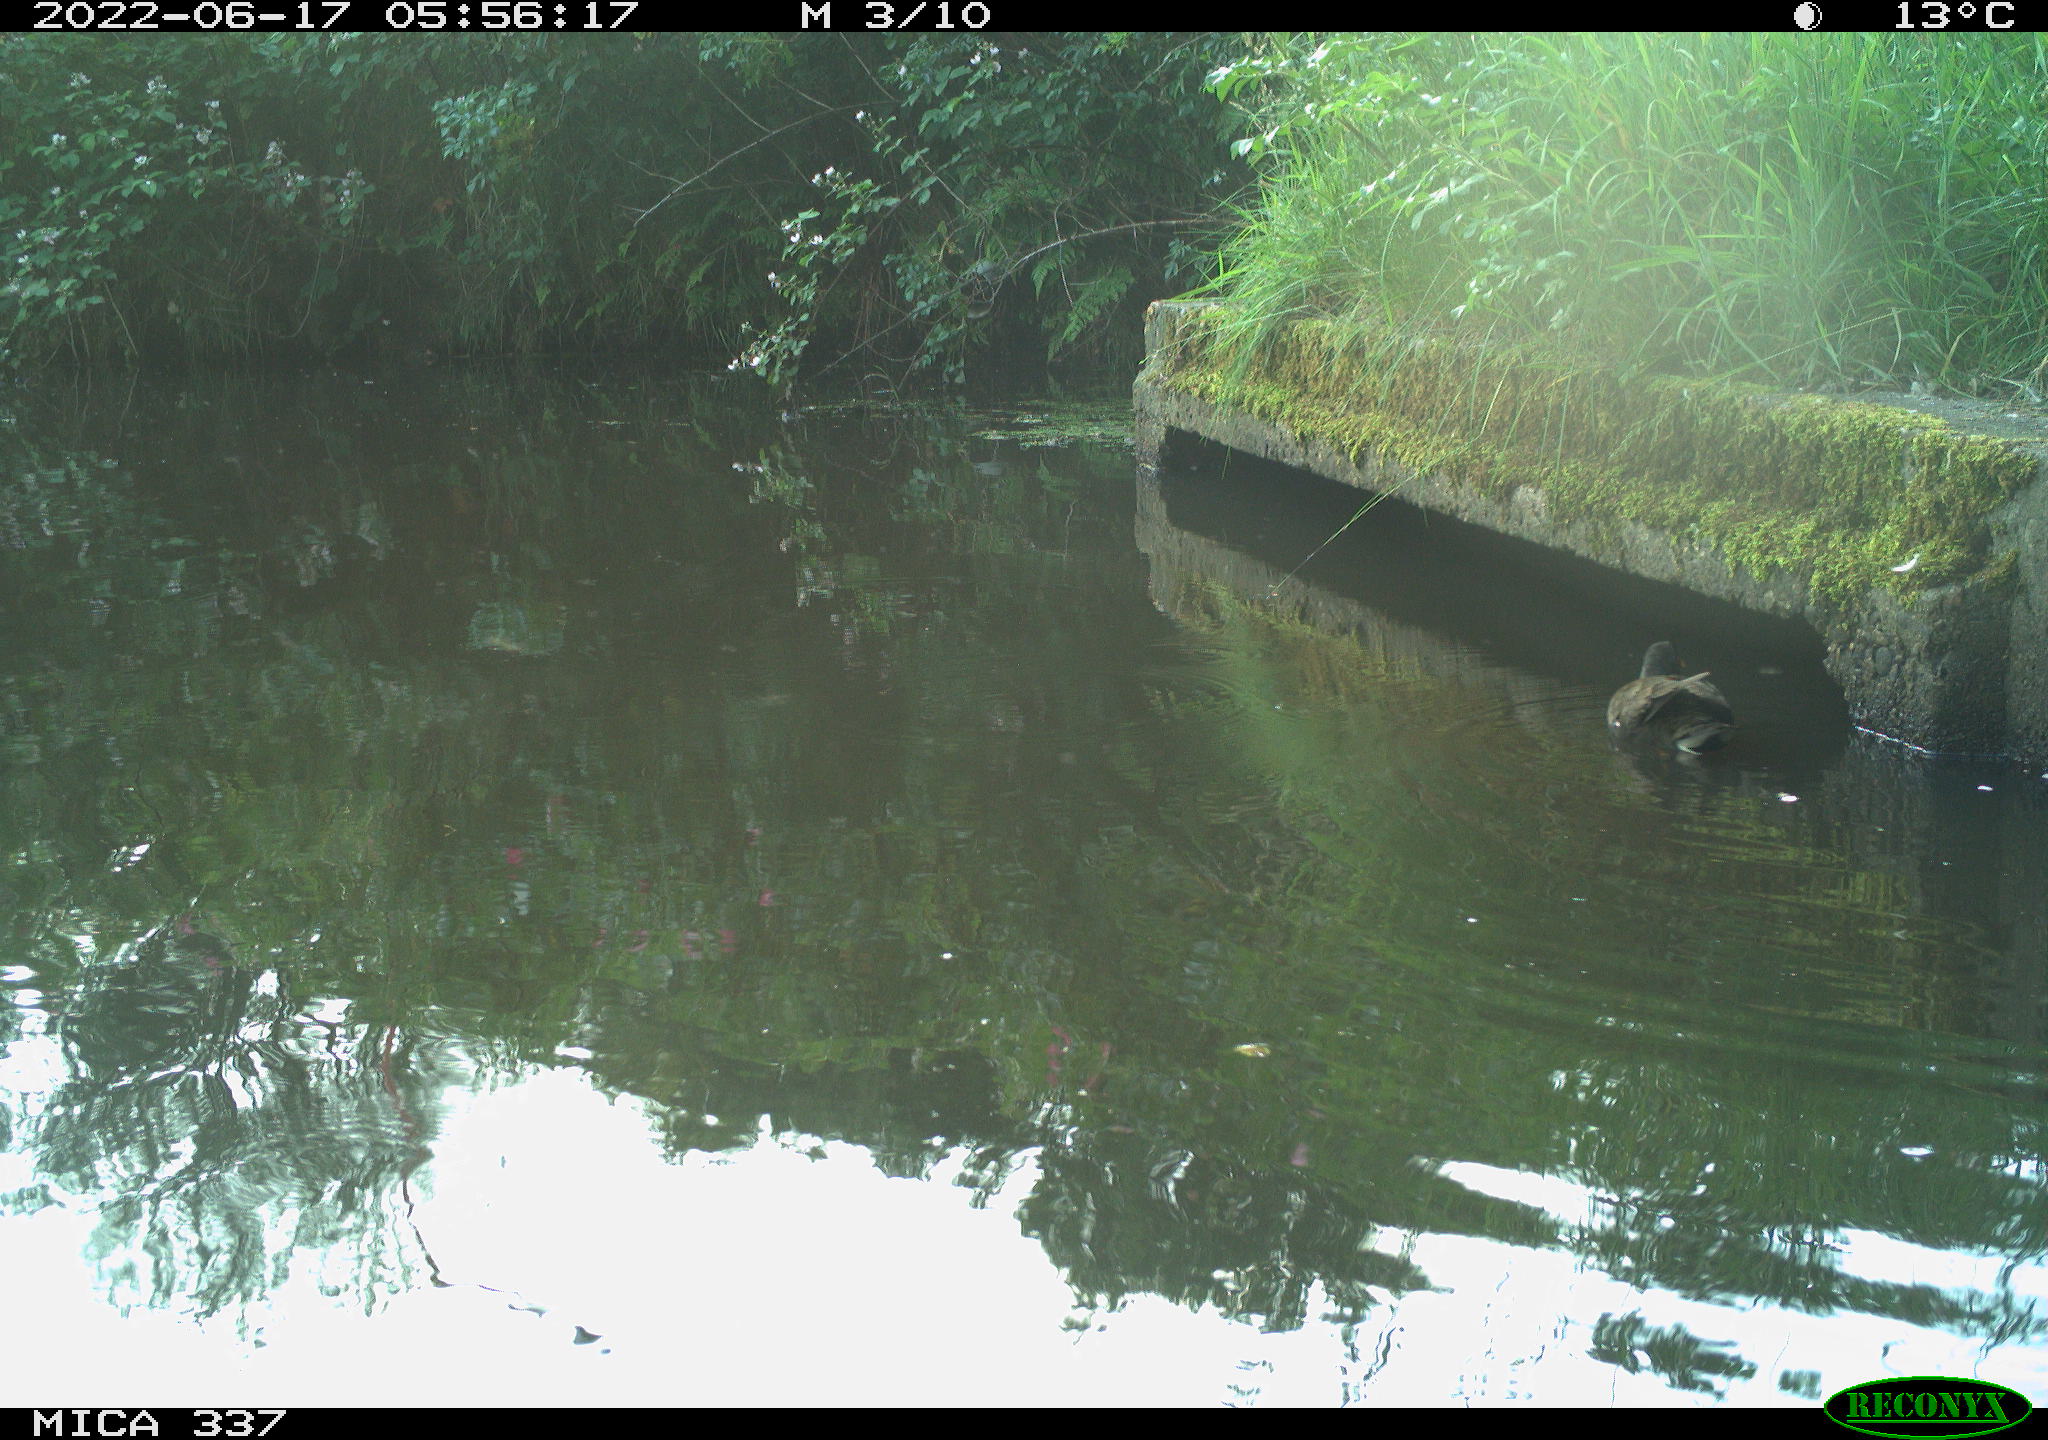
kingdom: Animalia
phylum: Chordata
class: Aves
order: Gruiformes
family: Rallidae
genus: Gallinula
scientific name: Gallinula chloropus
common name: Common moorhen
